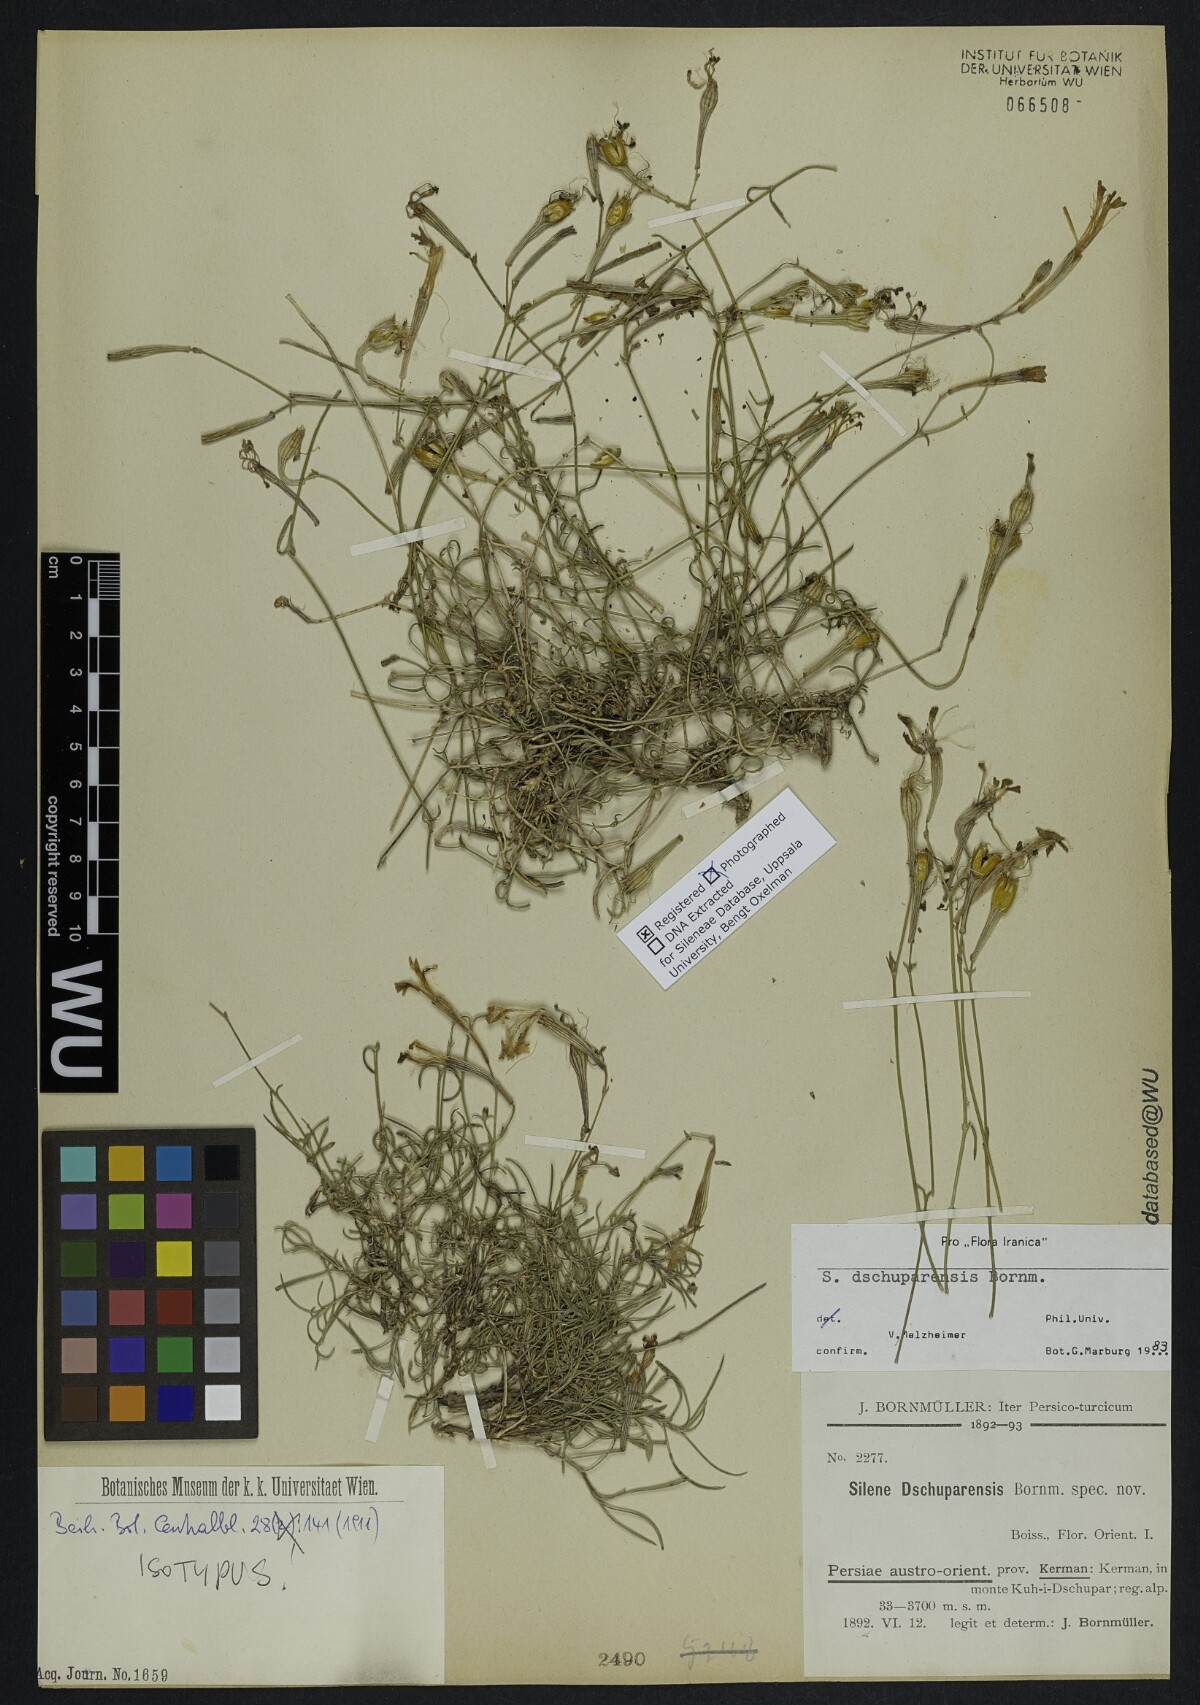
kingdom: Plantae
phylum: Tracheophyta
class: Magnoliopsida
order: Caryophyllales
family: Caryophyllaceae
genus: Silene
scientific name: Silene dschuparensis
